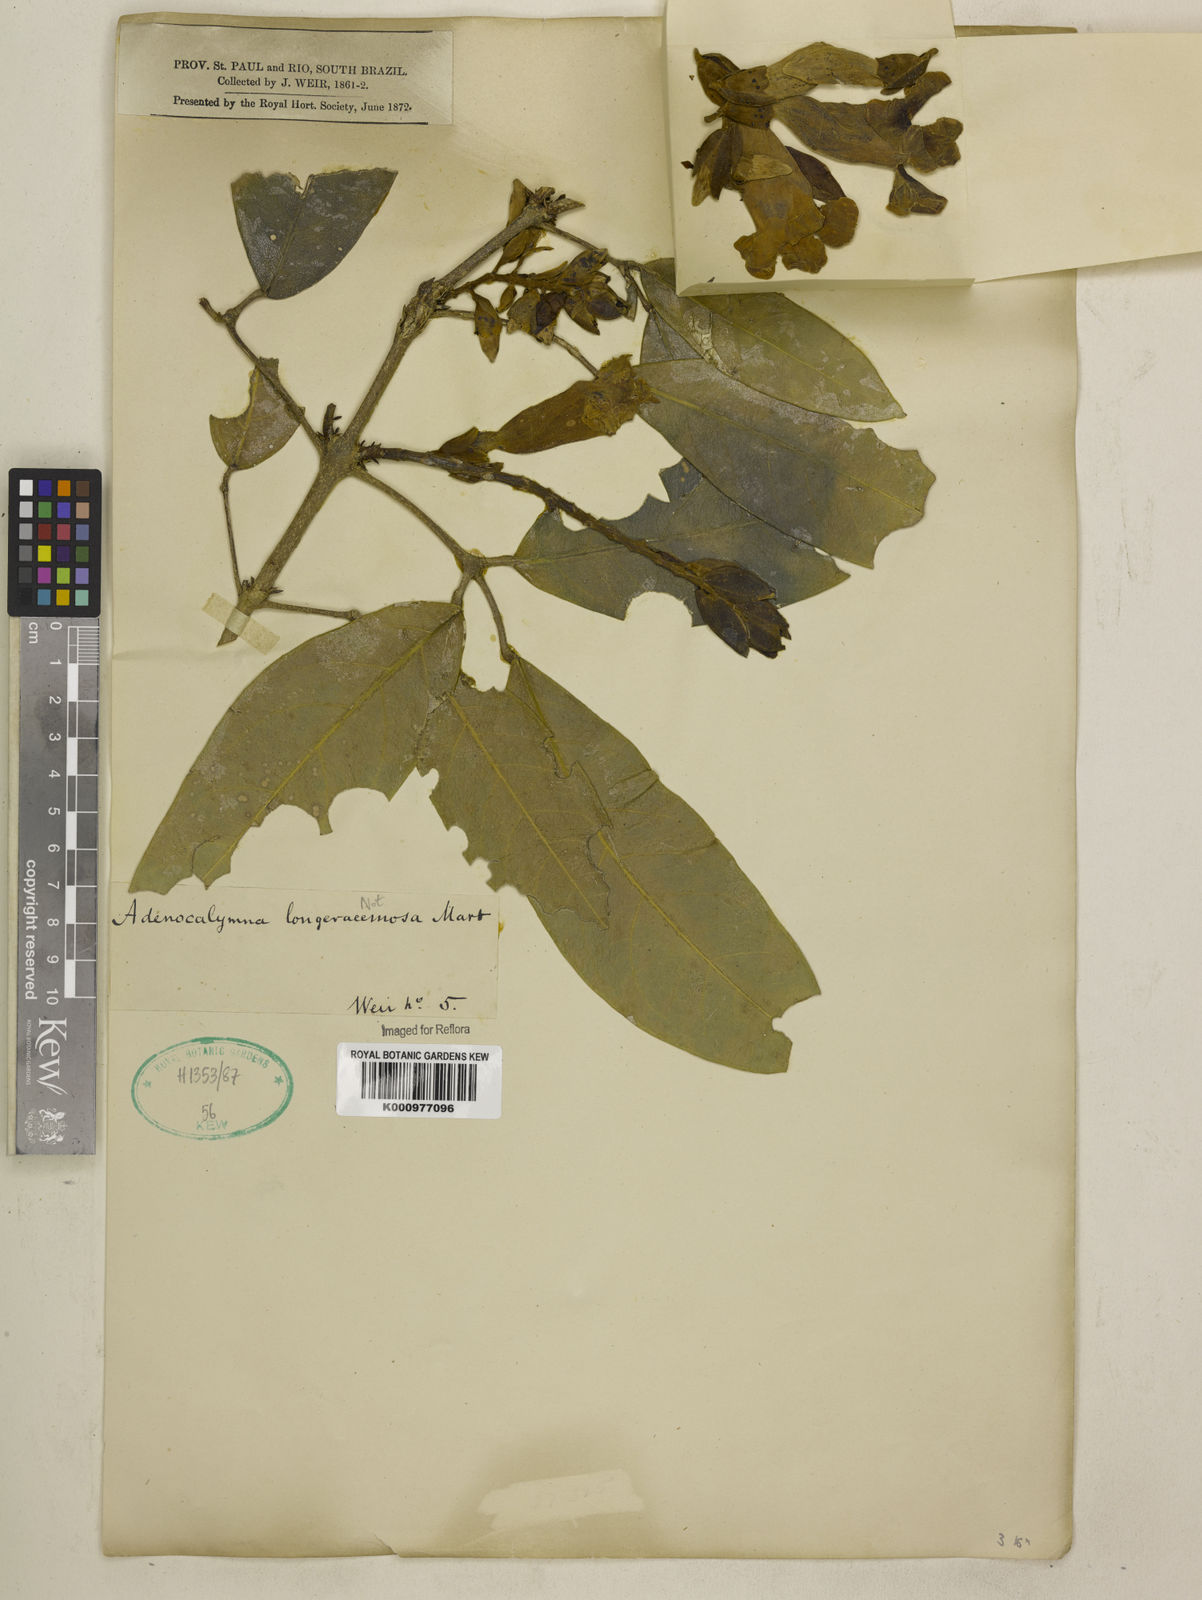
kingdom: Plantae
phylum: Tracheophyta
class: Magnoliopsida
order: Lamiales
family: Bignoniaceae
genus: Adenocalymma
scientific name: Adenocalymma
